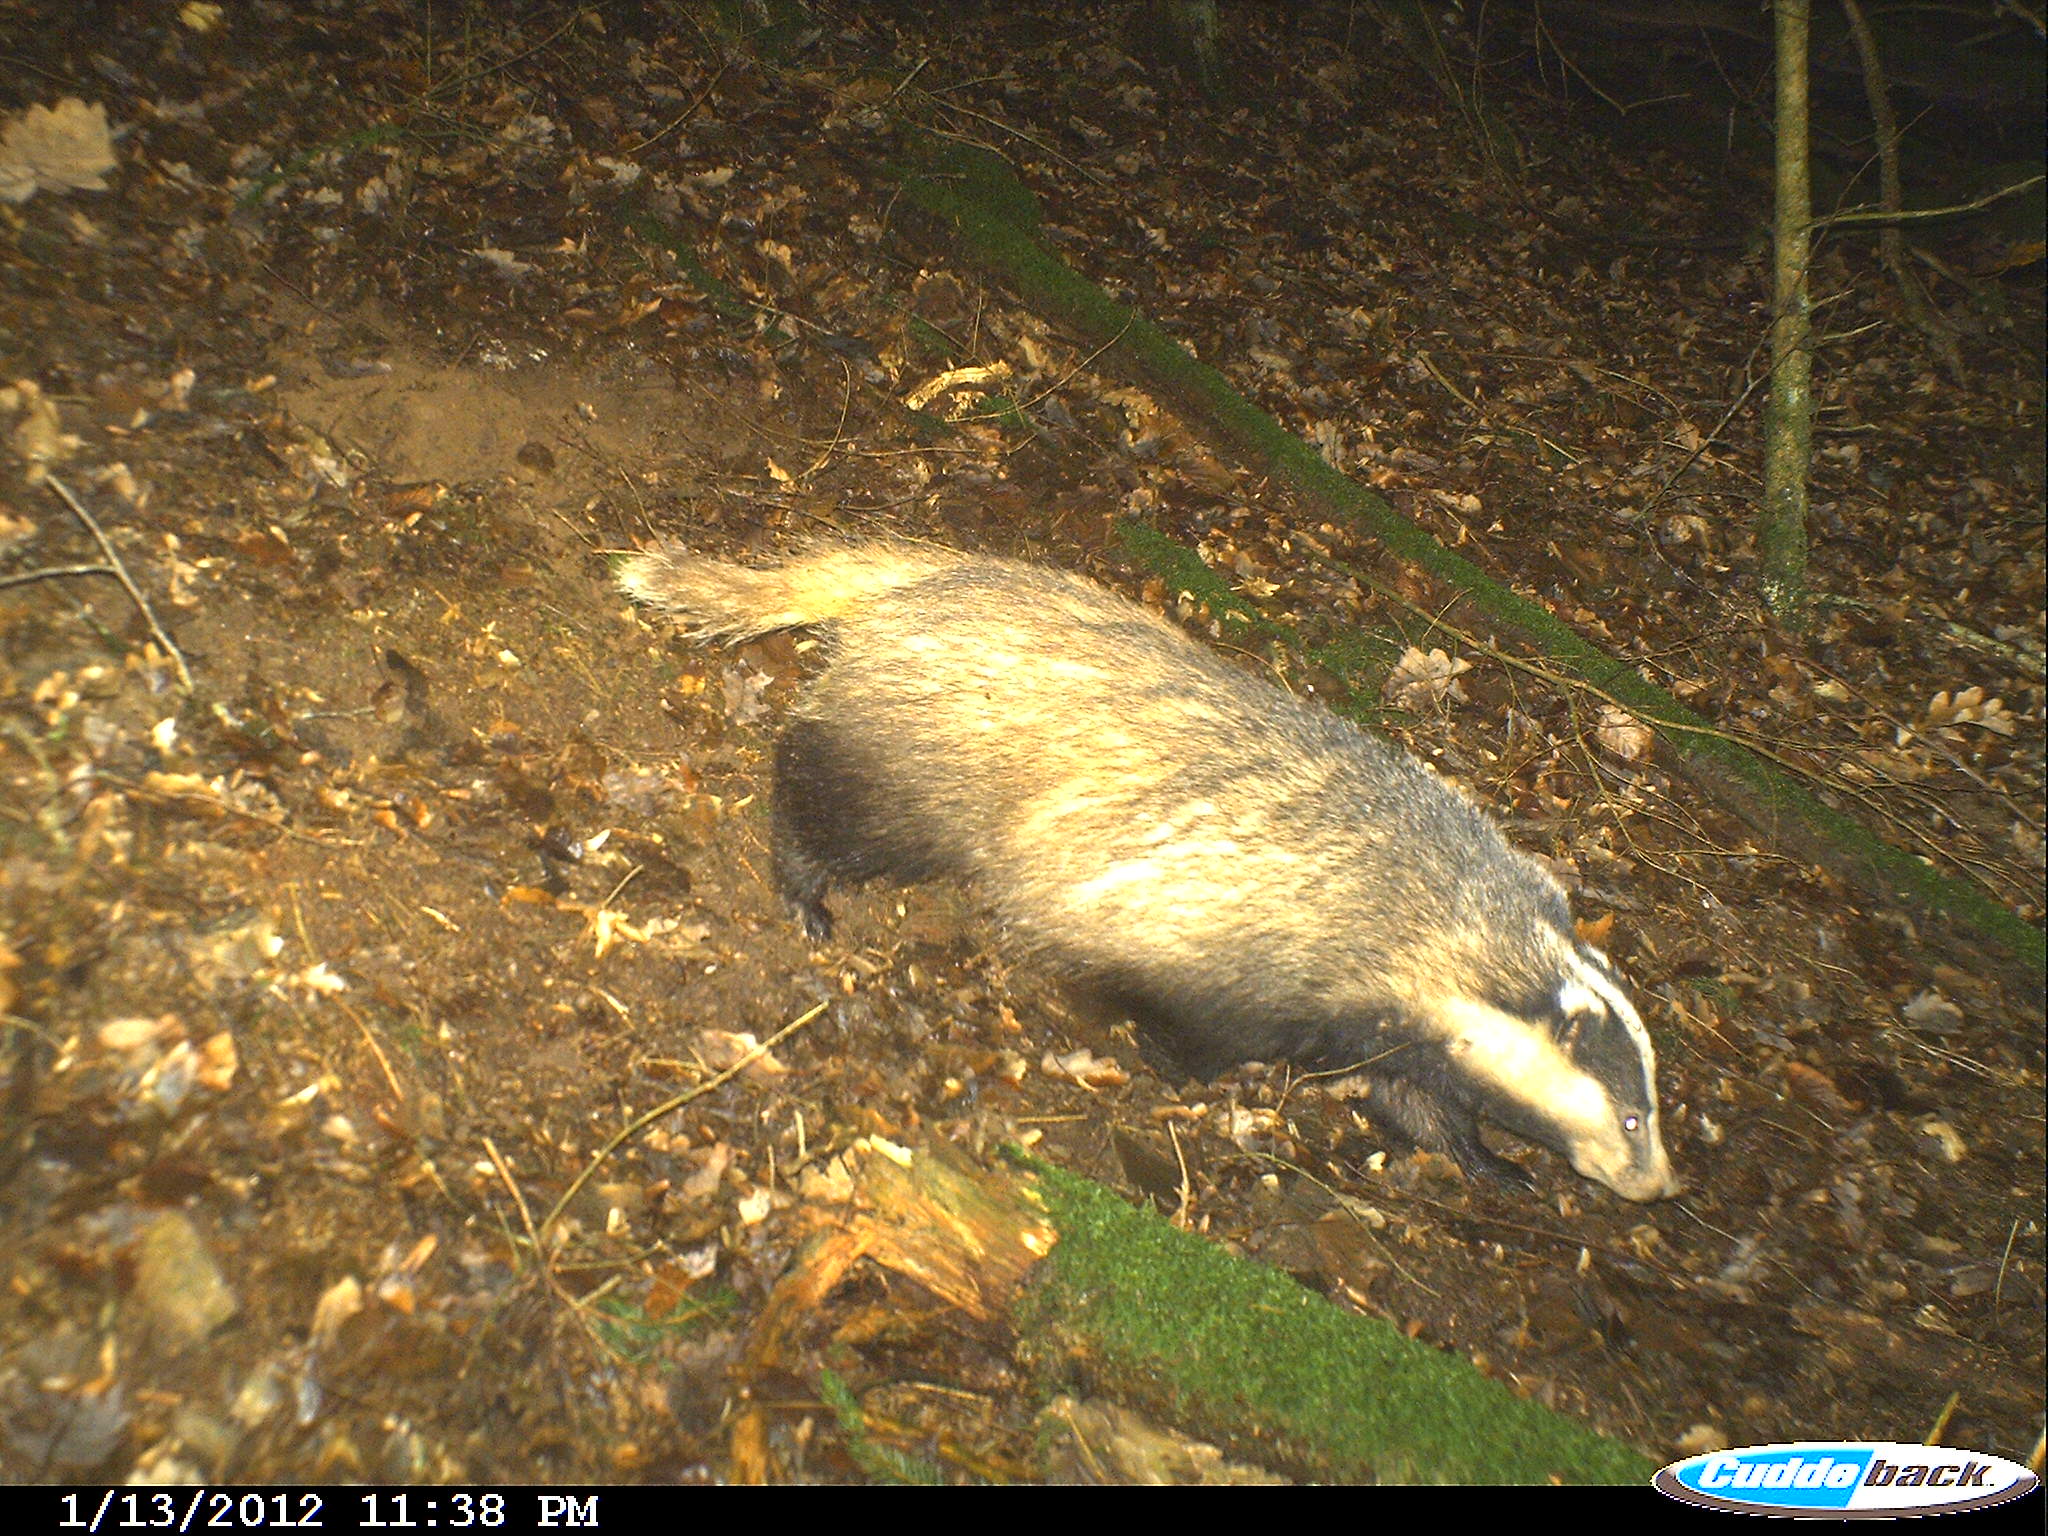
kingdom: Animalia
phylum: Chordata
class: Mammalia
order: Carnivora
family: Mustelidae
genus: Meles
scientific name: Meles meles
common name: Eurasian badger
